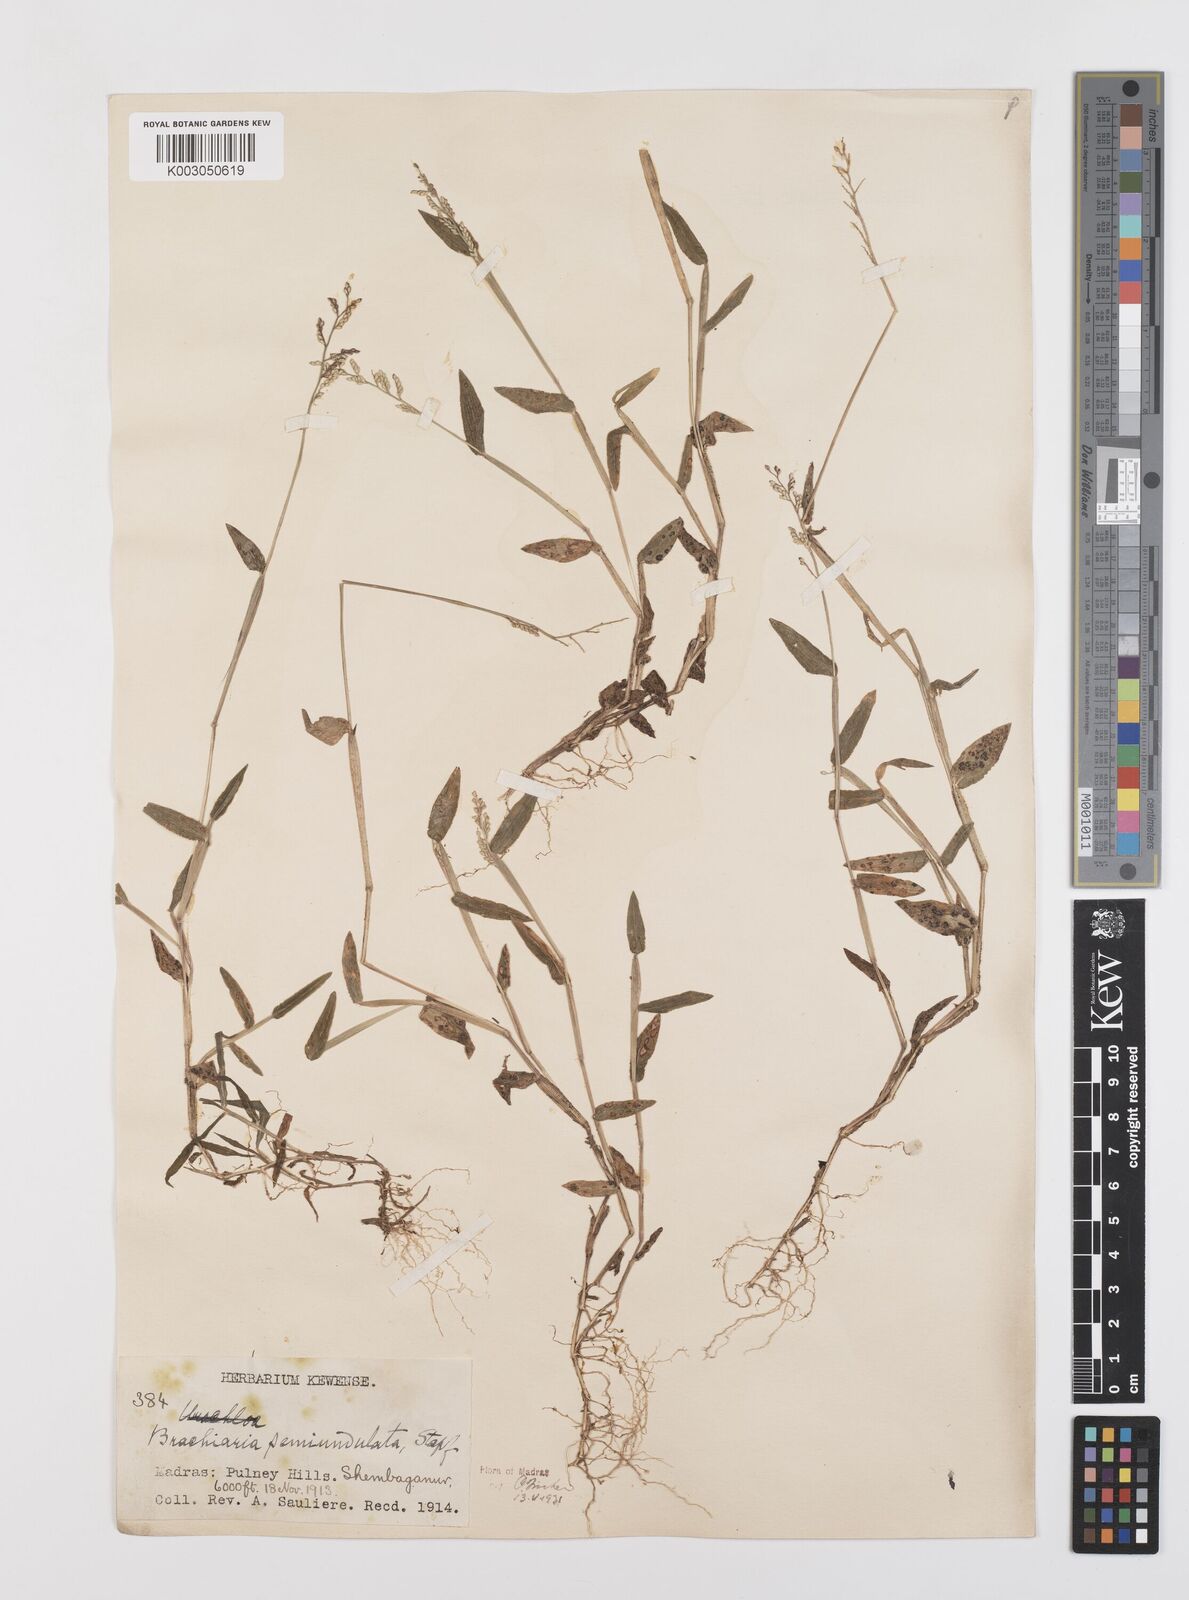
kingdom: Plantae
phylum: Tracheophyta
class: Liliopsida
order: Poales
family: Poaceae
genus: Urochloa
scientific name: Urochloa semiundulata
